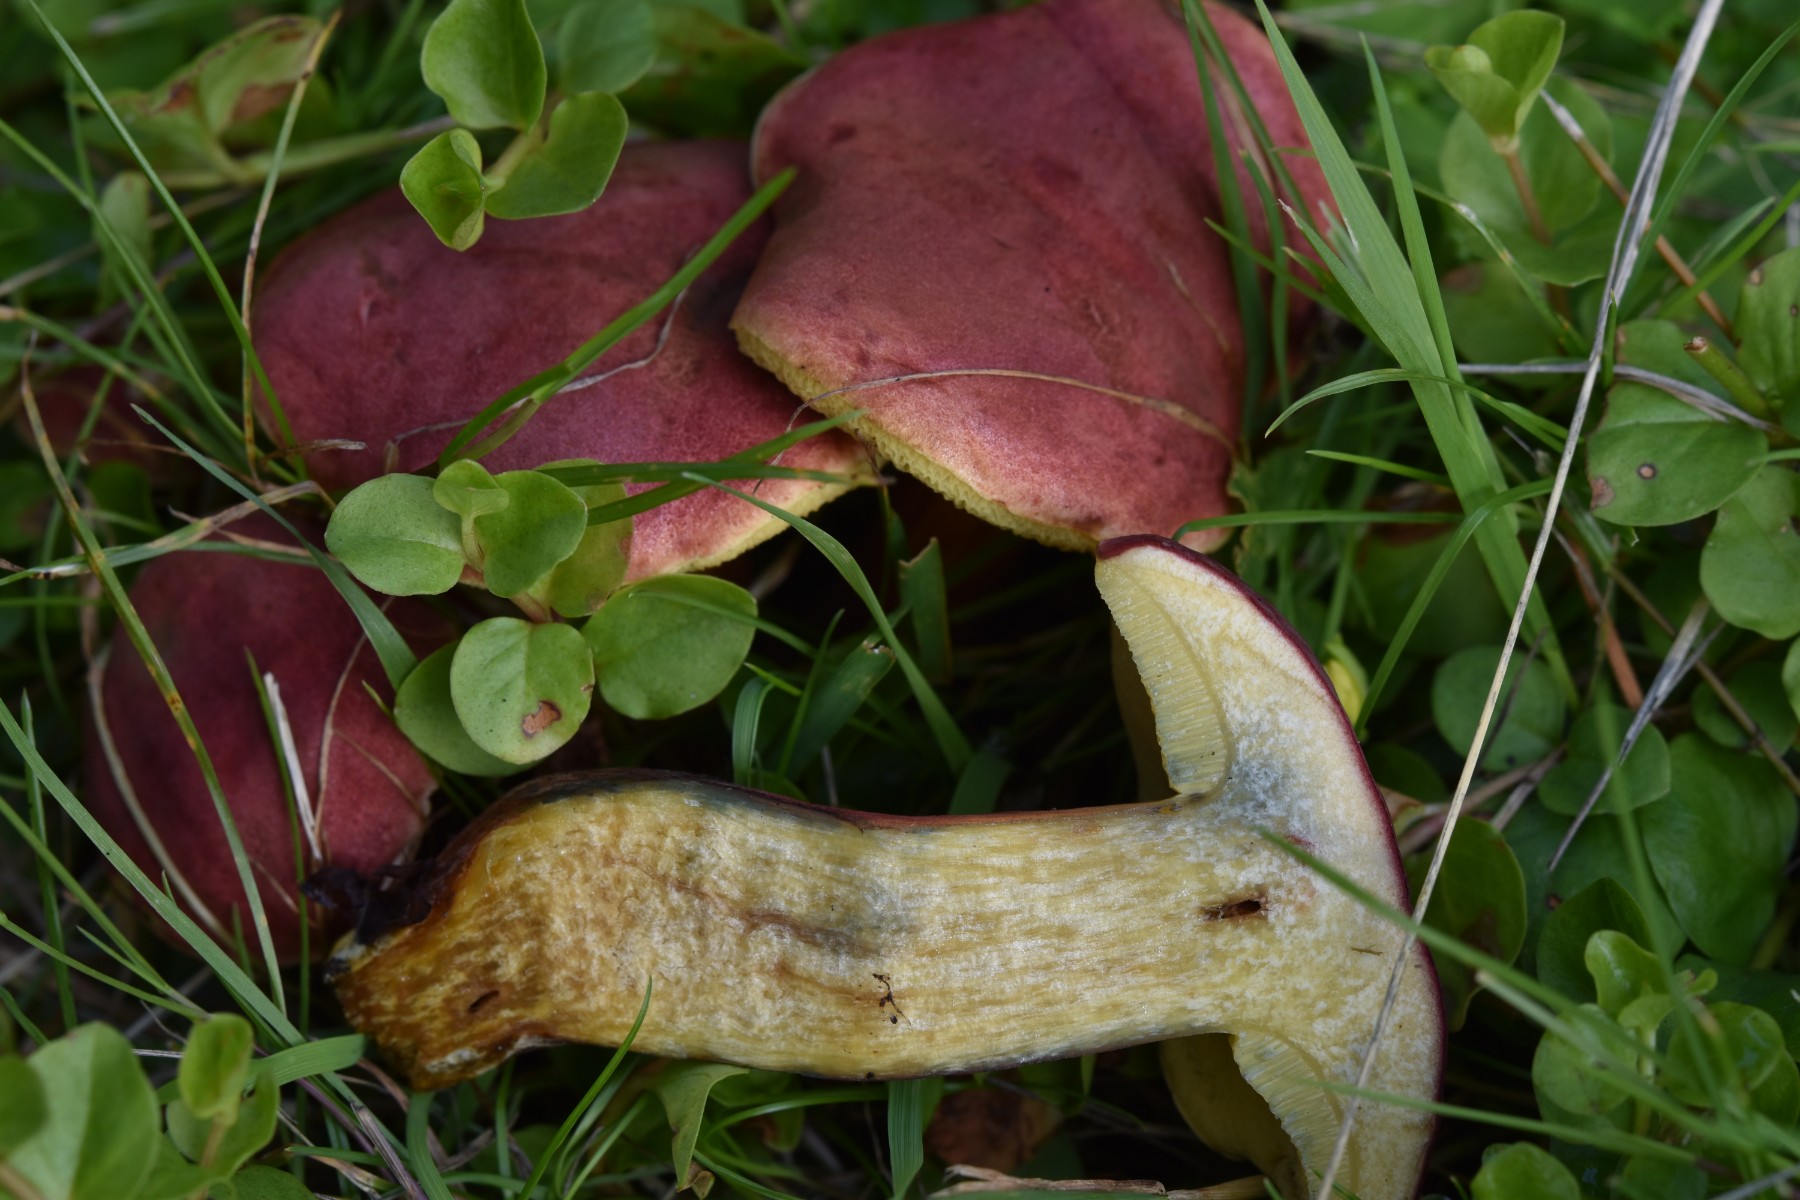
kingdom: Fungi
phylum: Basidiomycota
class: Agaricomycetes
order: Boletales
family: Boletaceae
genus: Hortiboletus
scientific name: Hortiboletus rubellus
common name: blodrød rørhat
